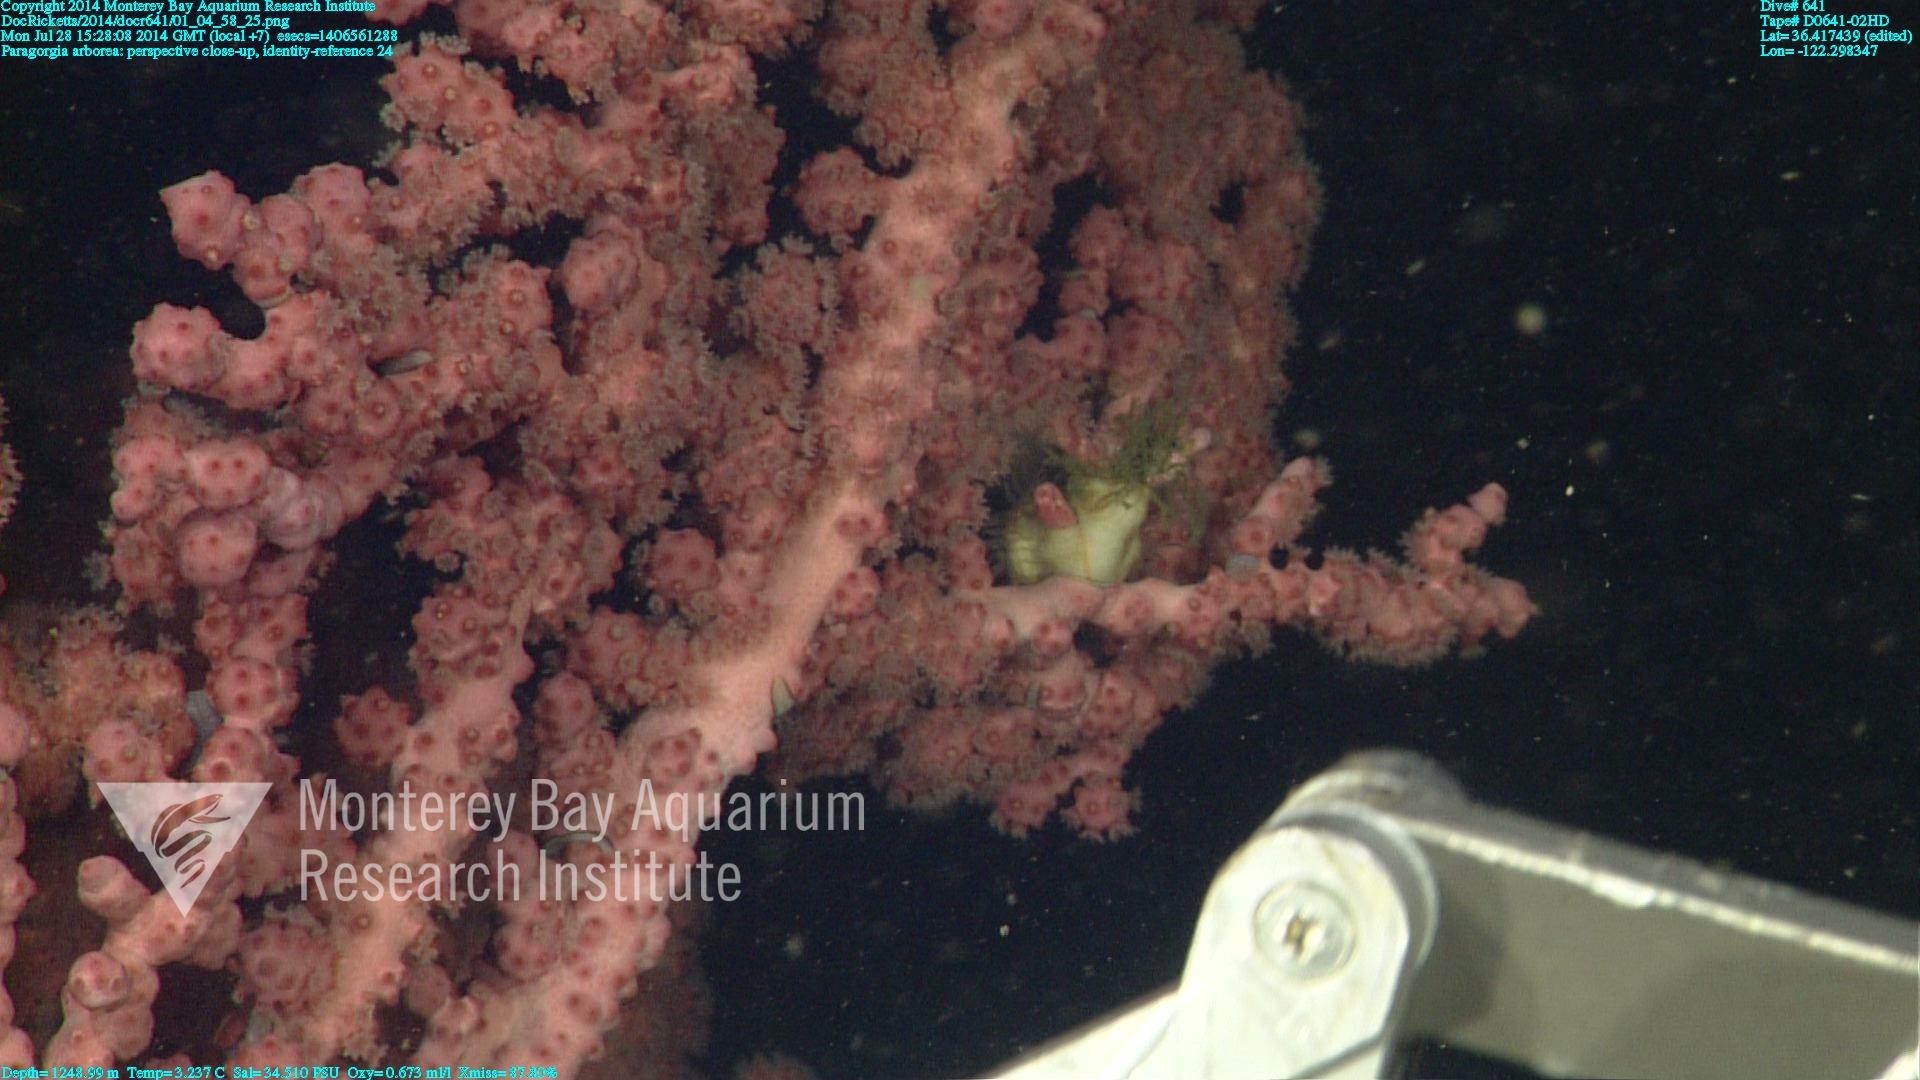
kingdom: Animalia
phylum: Cnidaria
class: Anthozoa
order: Scleralcyonacea
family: Coralliidae
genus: Paragorgia
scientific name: Paragorgia arborea
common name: Bubble gum coral
